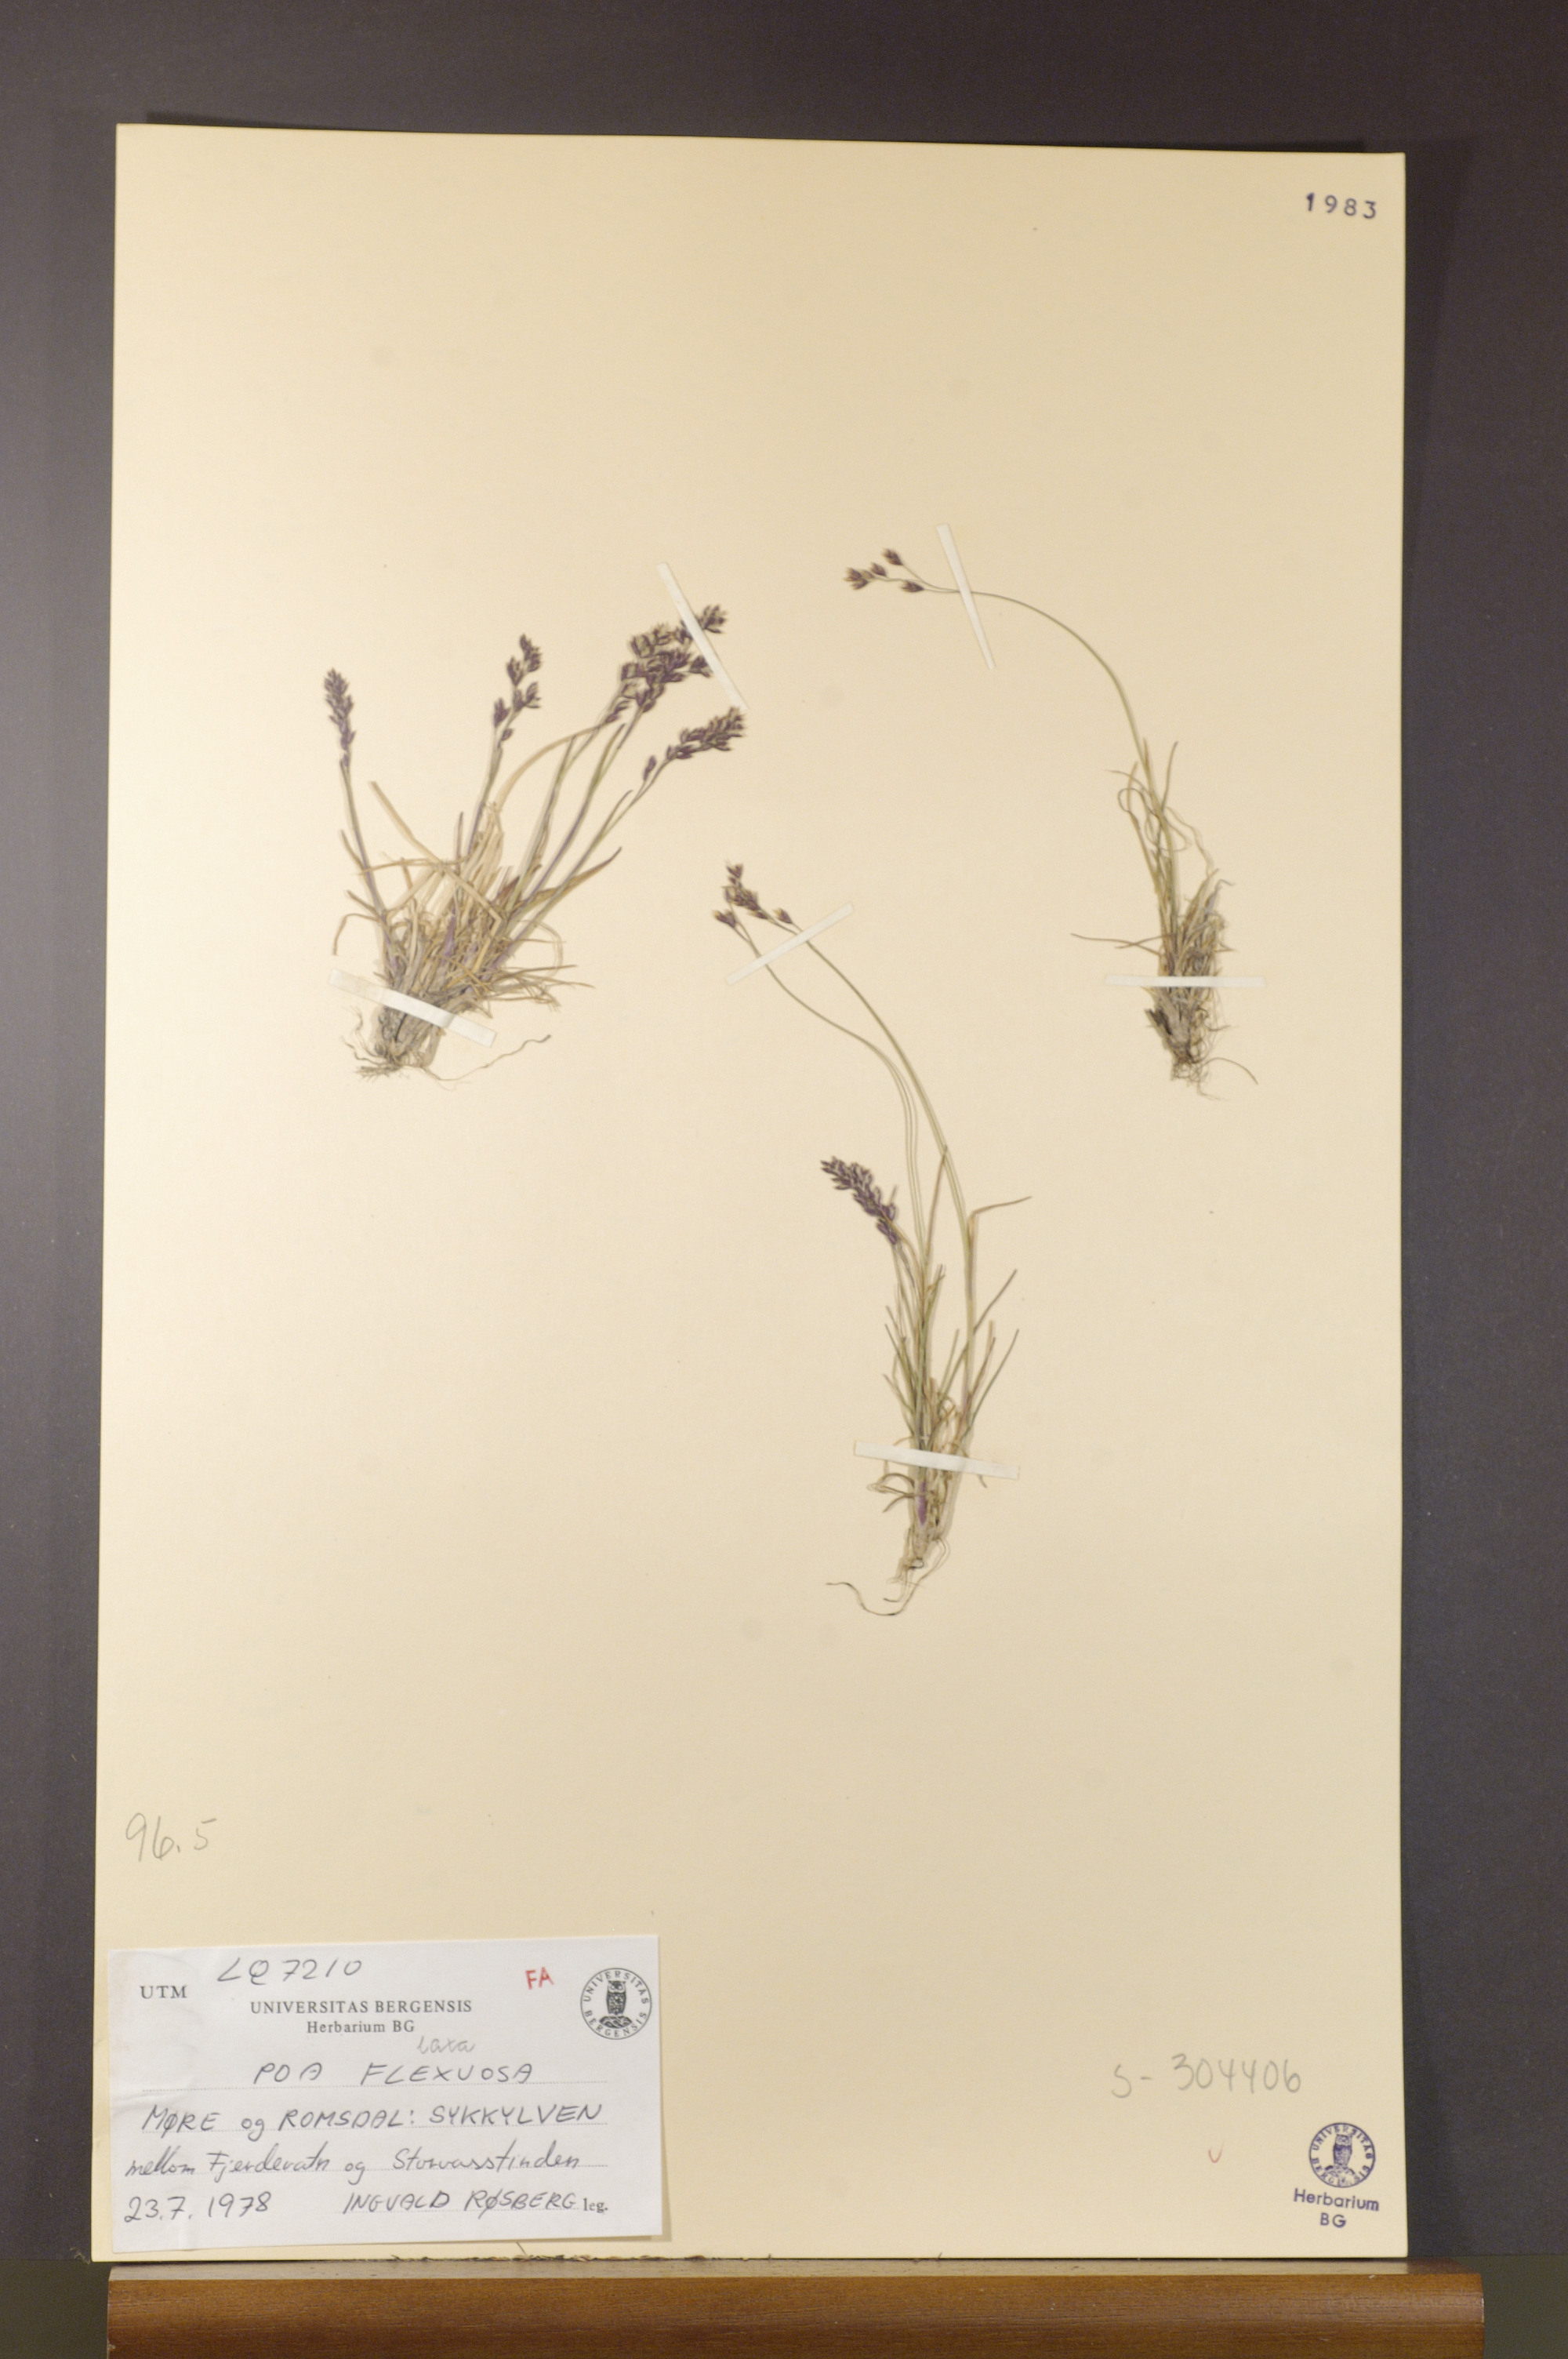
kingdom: Plantae
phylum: Tracheophyta
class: Liliopsida
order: Poales
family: Poaceae
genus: Poa
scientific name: Poa flexuosa
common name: Wavy meadow-grass
